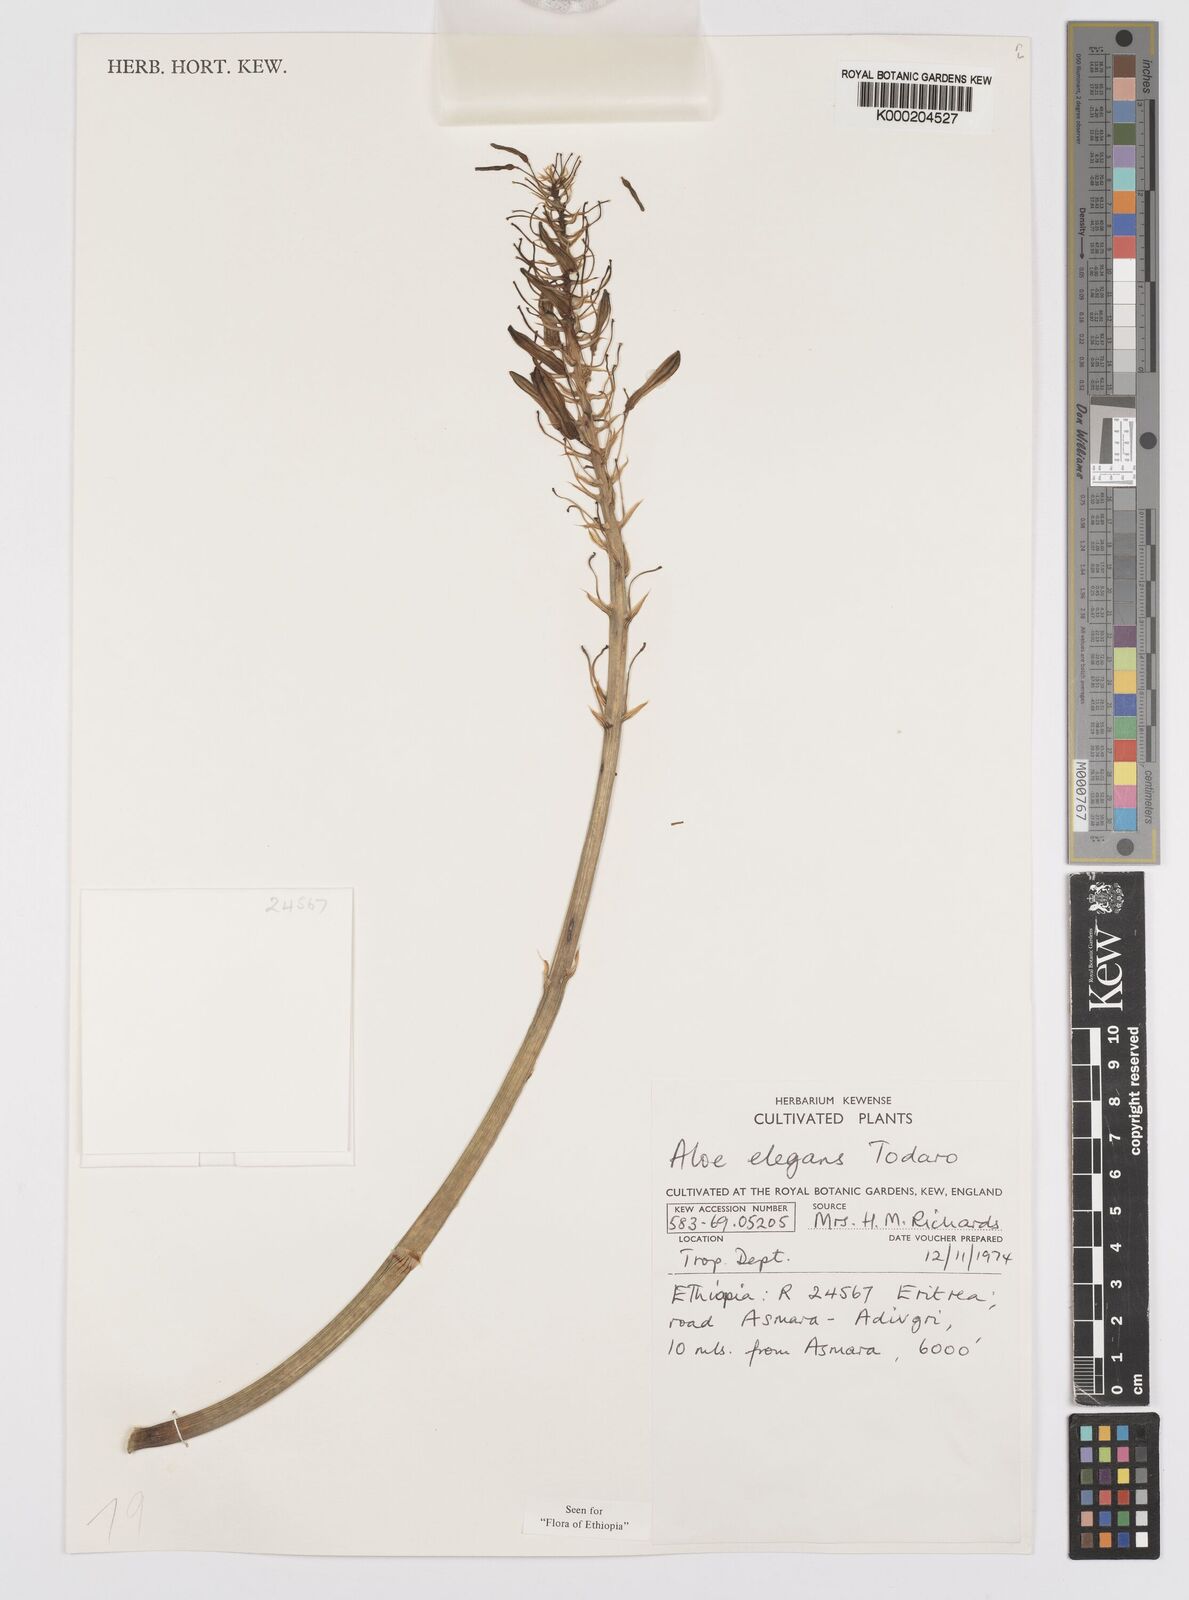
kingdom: Plantae
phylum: Tracheophyta
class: Liliopsida
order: Asparagales
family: Asphodelaceae
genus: Aloe
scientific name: Aloe elegans
